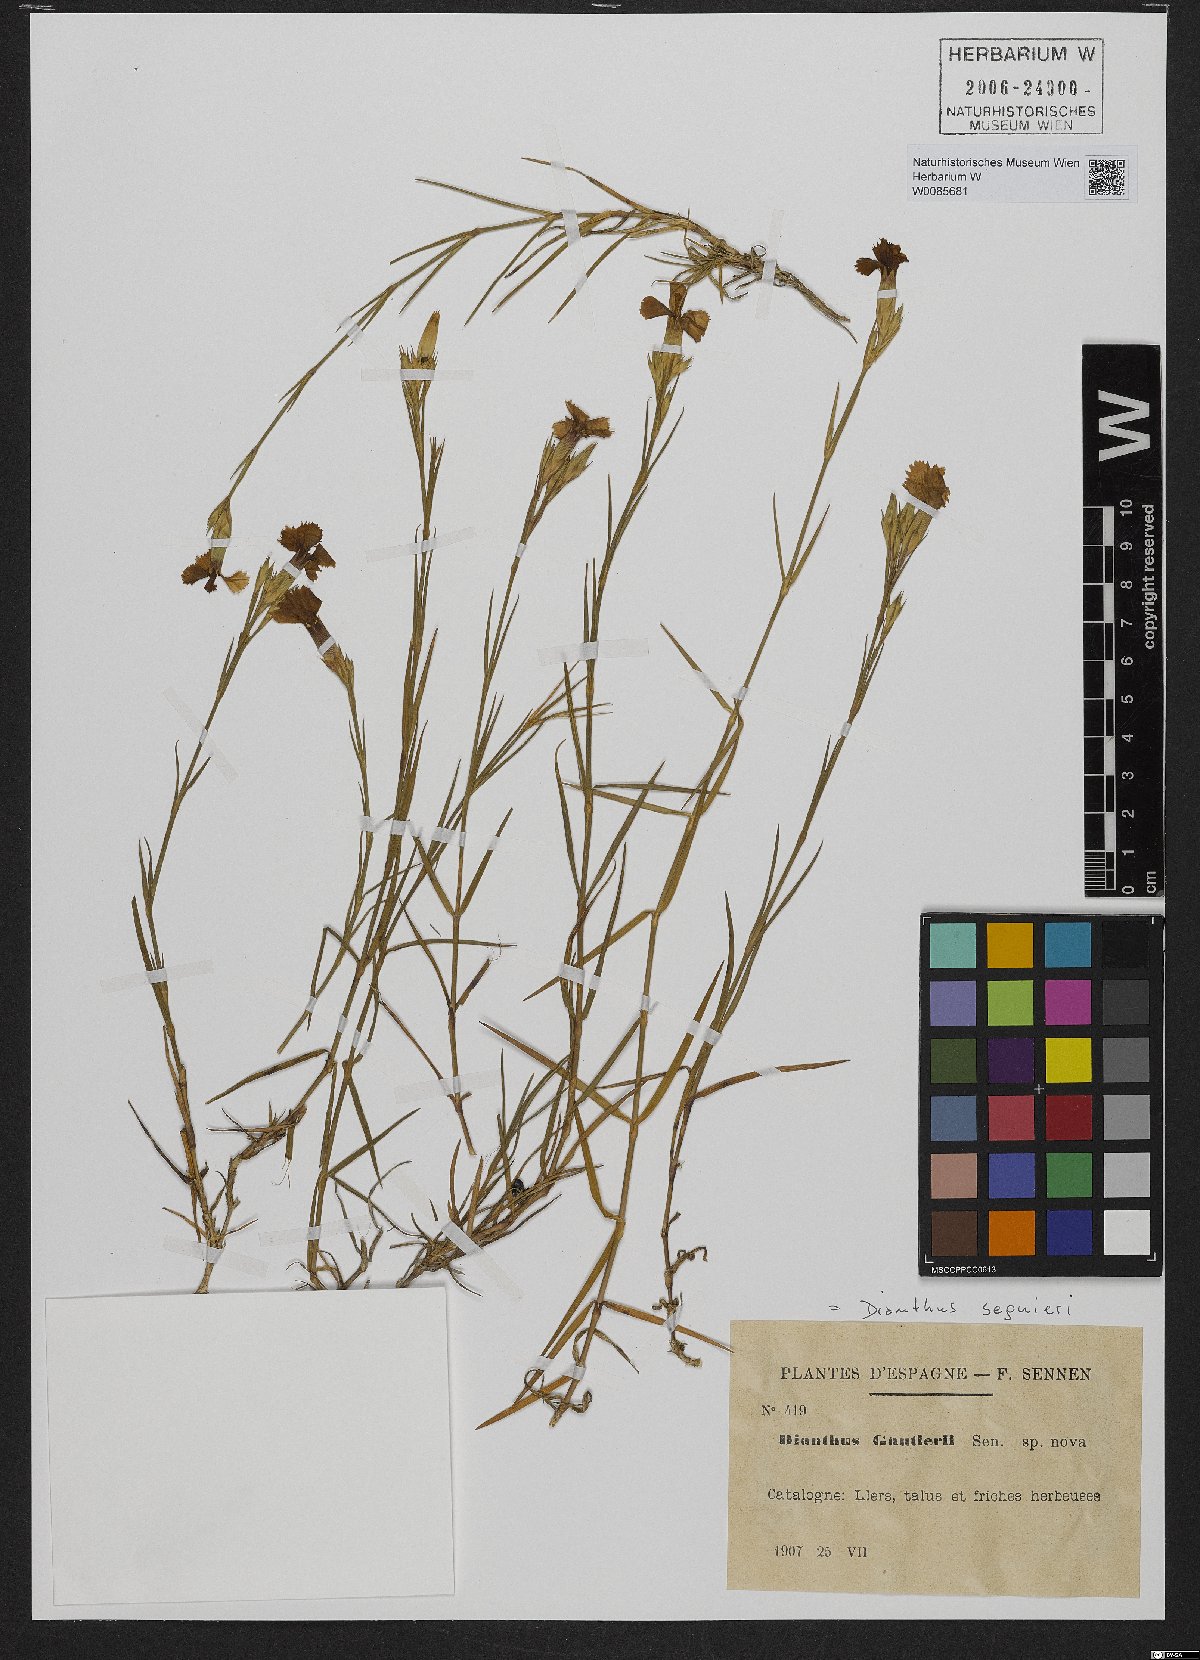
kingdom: Plantae
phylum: Tracheophyta
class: Magnoliopsida
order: Caryophyllales
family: Caryophyllaceae
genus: Dianthus
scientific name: Dianthus seguieri
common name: Ragged pink
